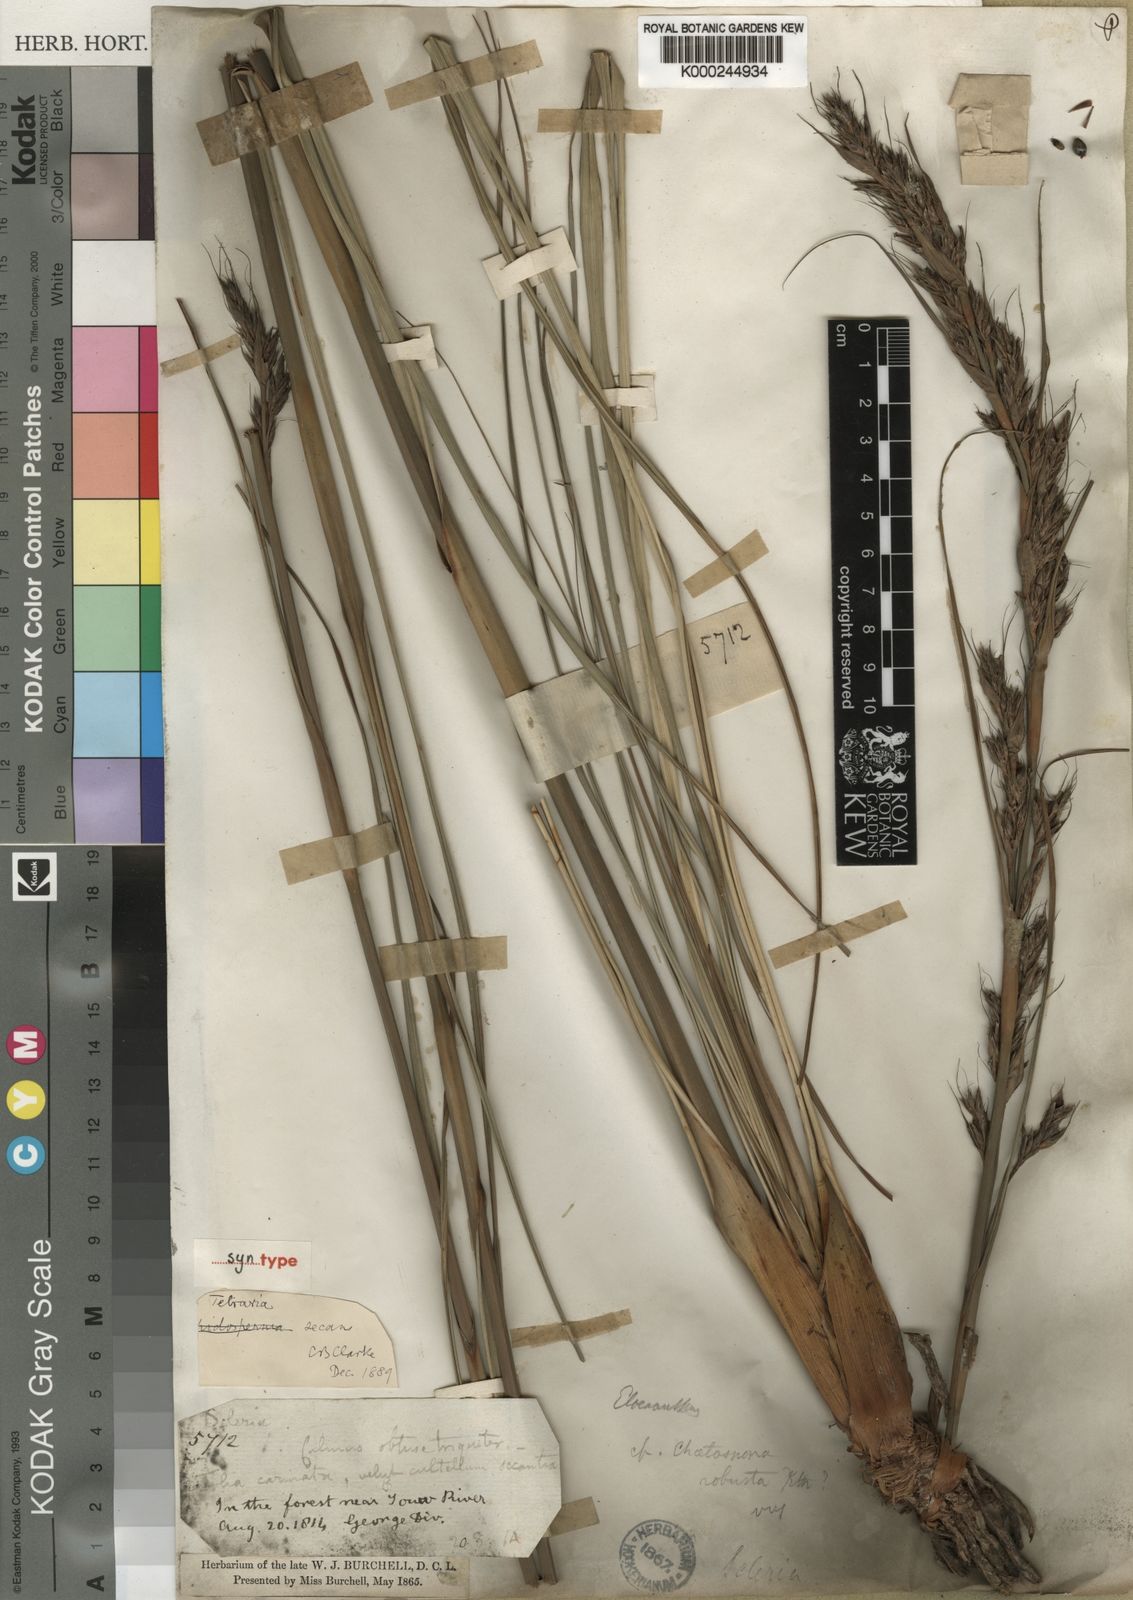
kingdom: Plantae
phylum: Tracheophyta
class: Liliopsida
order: Poales
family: Cyperaceae
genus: Tetraria
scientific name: Tetraria secans
